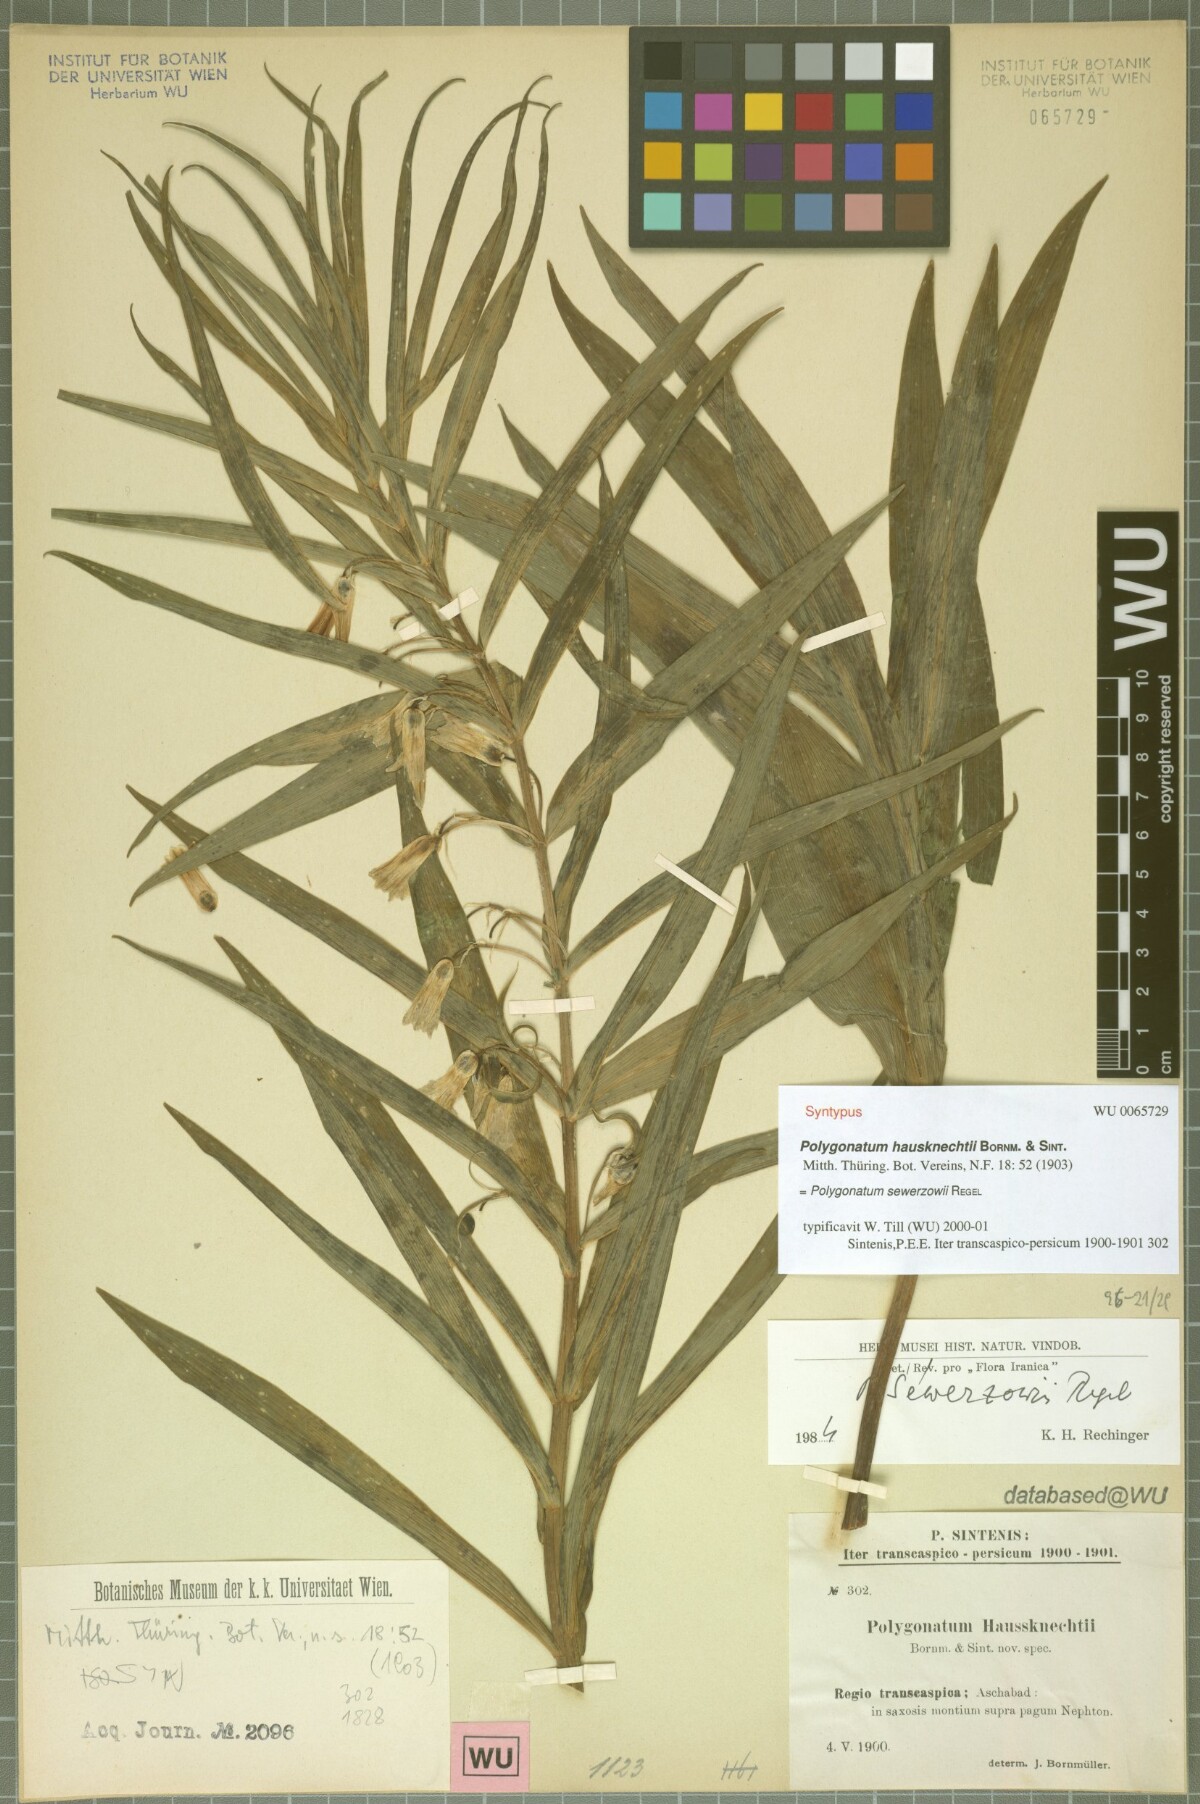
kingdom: Plantae
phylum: Tracheophyta
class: Liliopsida
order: Asparagales
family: Asparagaceae
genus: Polygonatum
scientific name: Polygonatum sewerzowii
